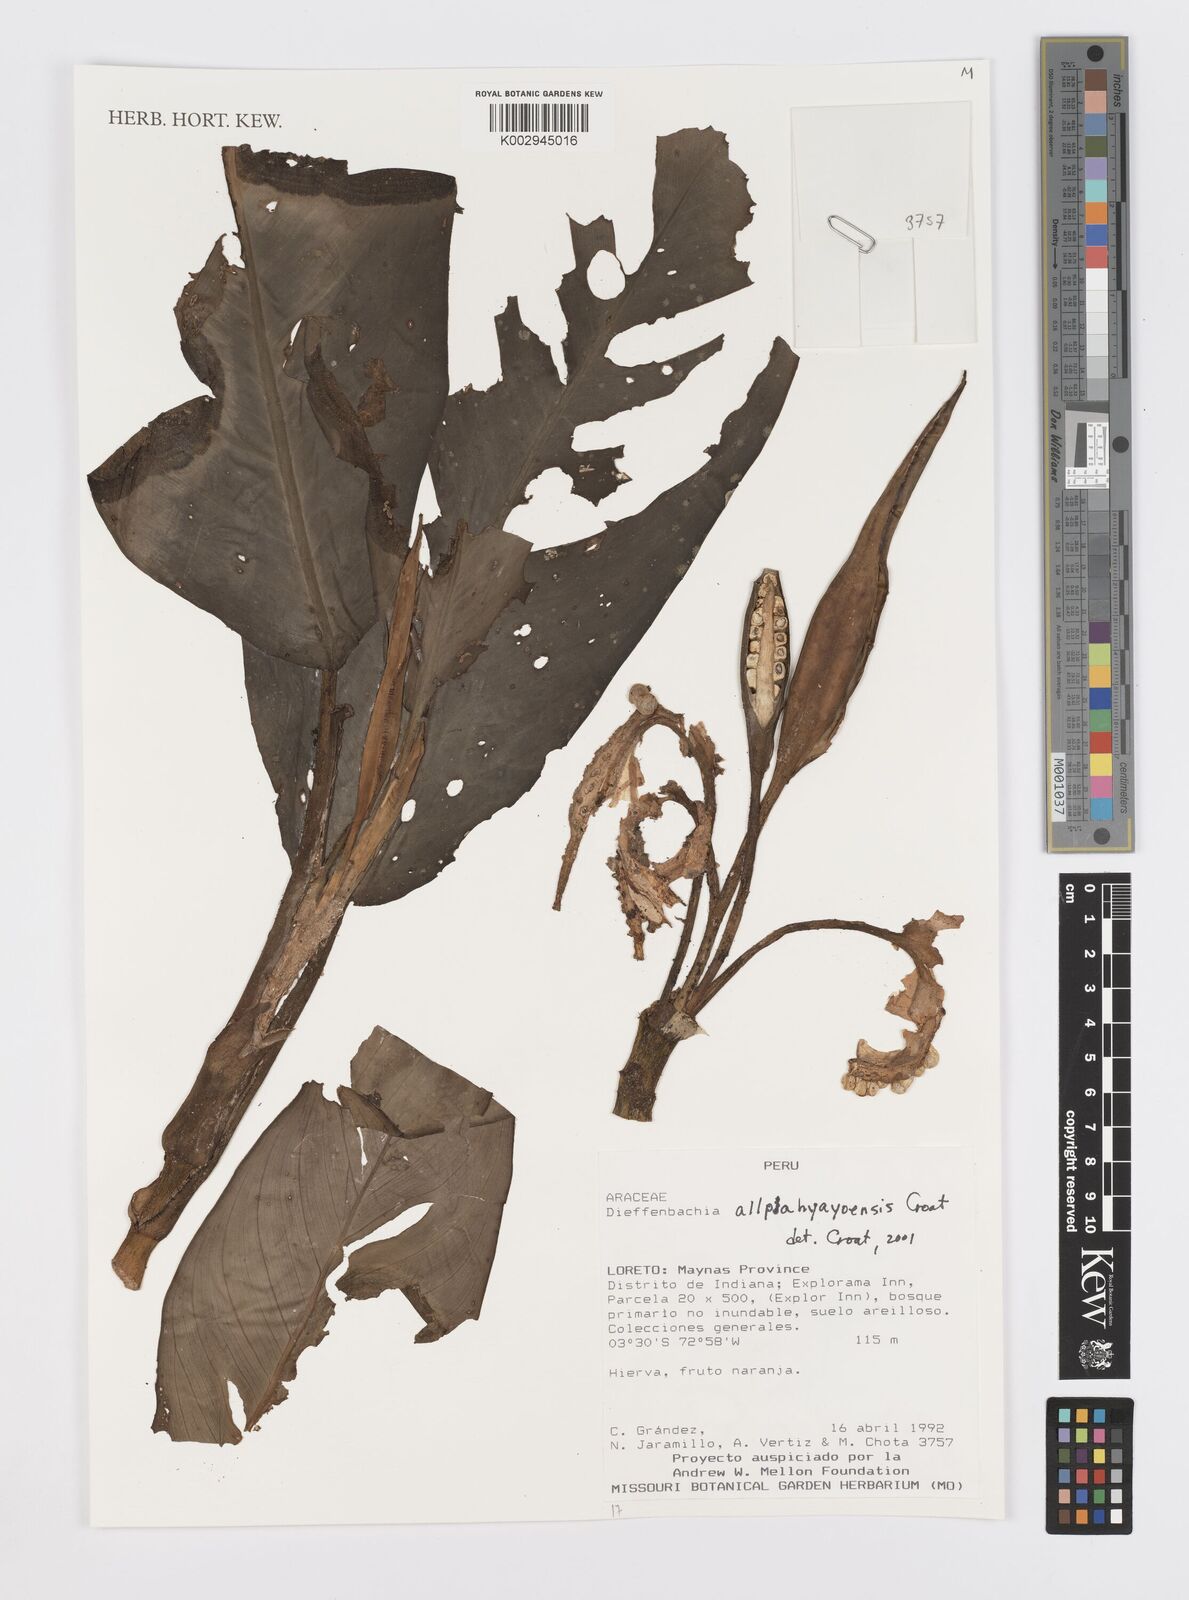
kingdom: Plantae
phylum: Tracheophyta
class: Liliopsida
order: Alismatales
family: Araceae
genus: Dieffenbachia
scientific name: Dieffenbachia
